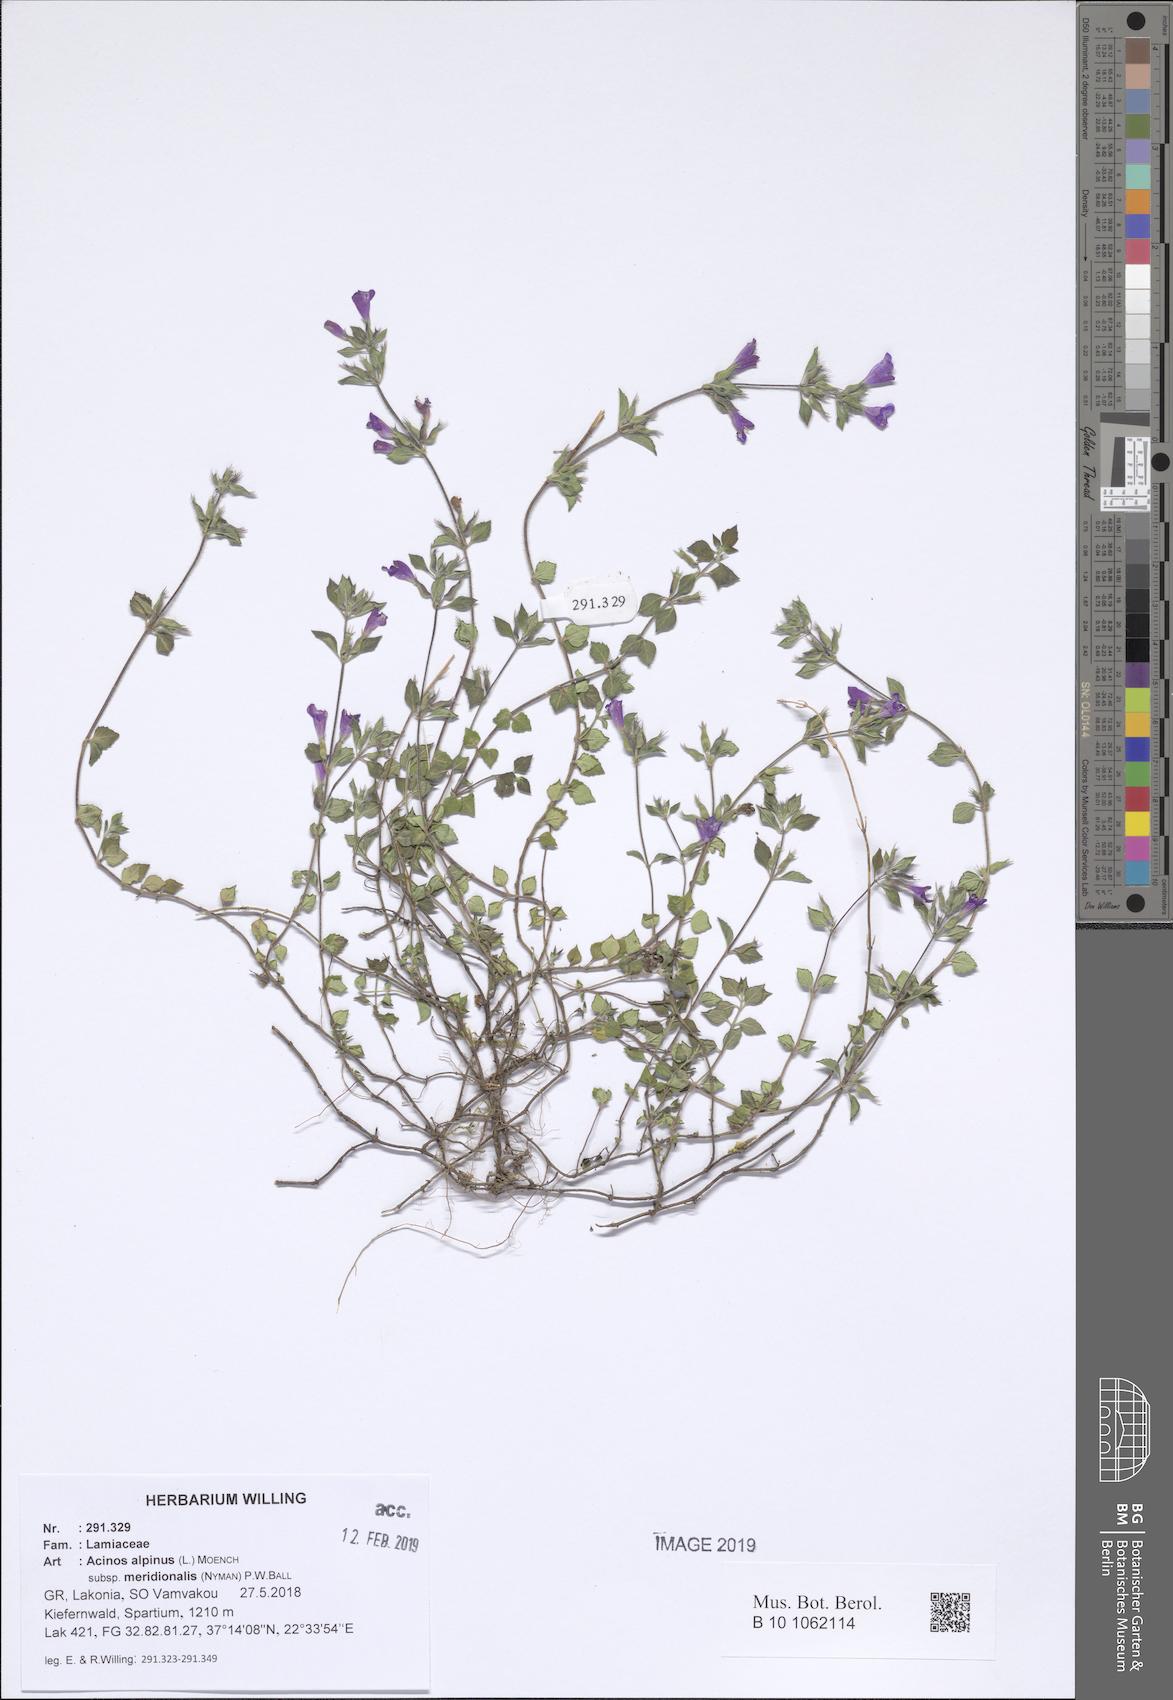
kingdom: Plantae
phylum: Tracheophyta
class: Magnoliopsida
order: Lamiales
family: Lamiaceae
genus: Clinopodium
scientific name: Clinopodium alpinum
